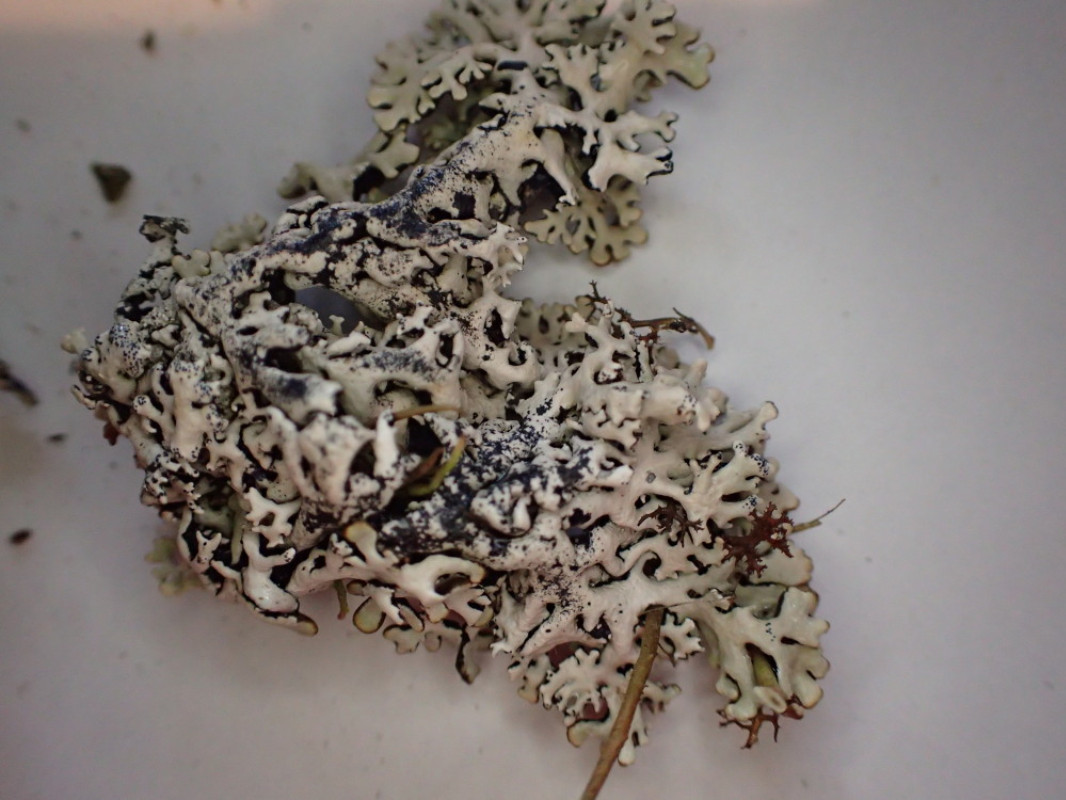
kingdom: Fungi
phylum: Ascomycota
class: Lecanoromycetes
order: Lecanorales
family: Parmeliaceae
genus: Hypogymnia
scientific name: Hypogymnia physodes
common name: almindelig kvistlav
